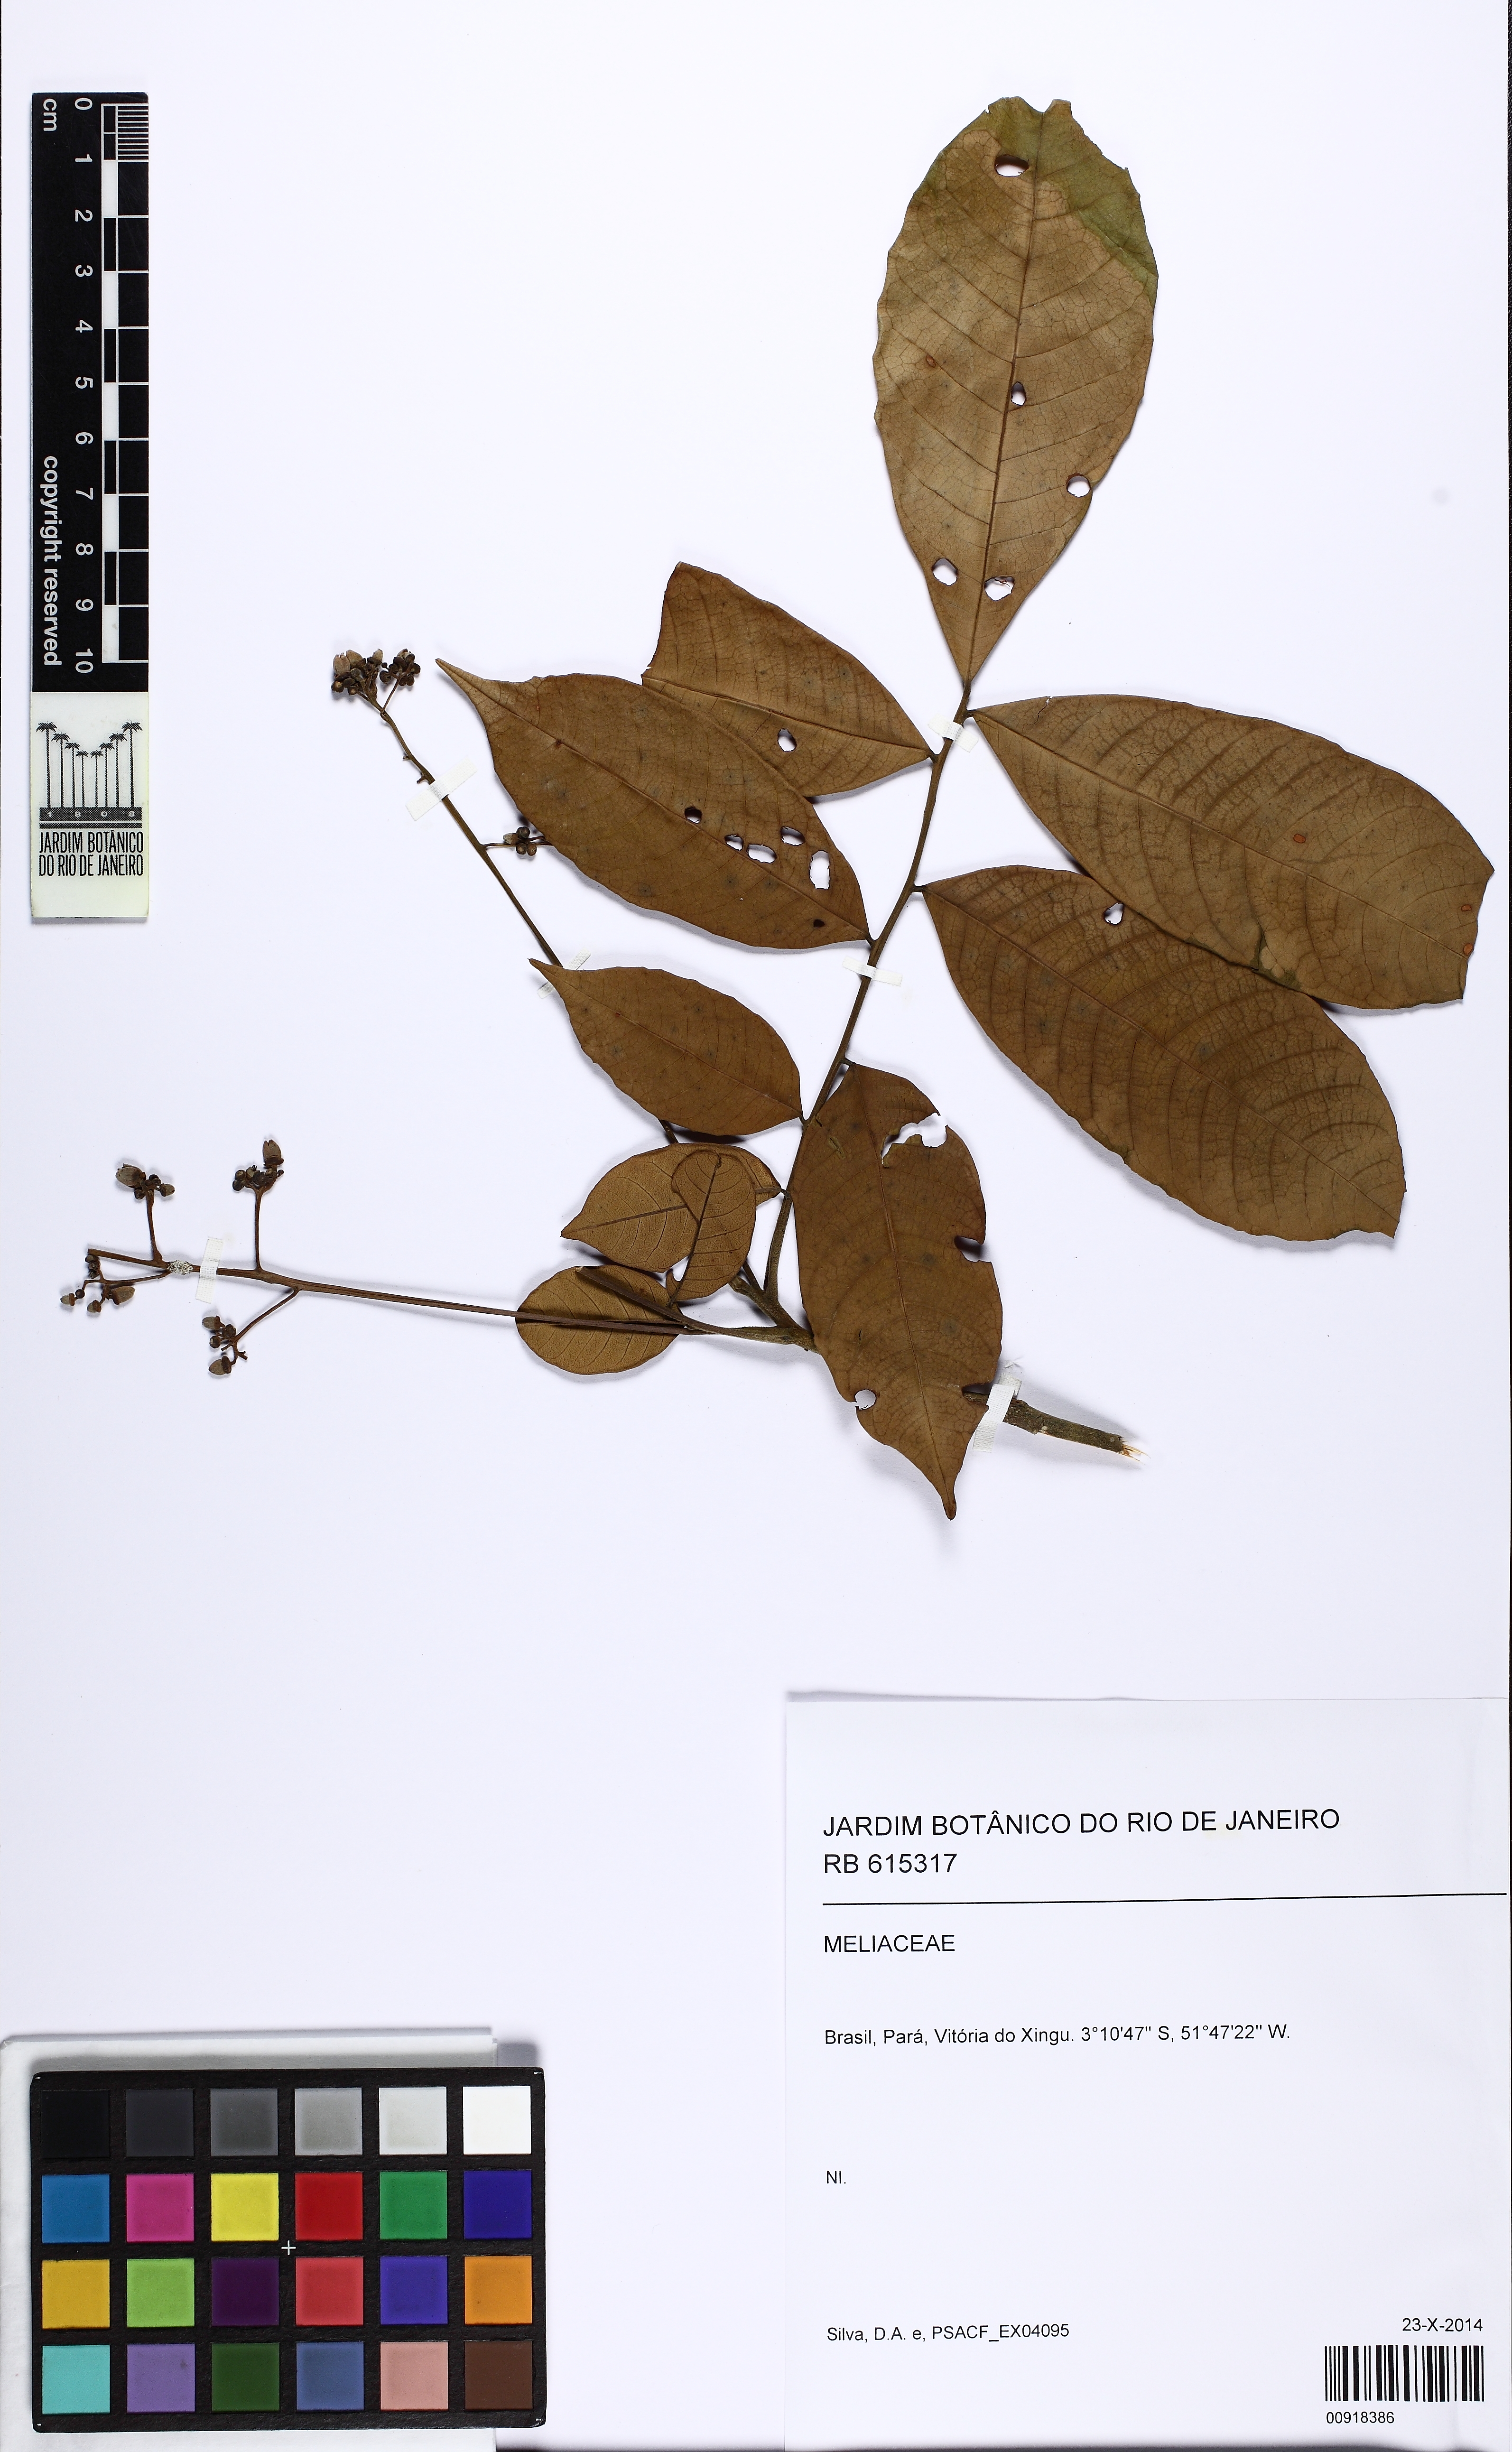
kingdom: Plantae
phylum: Tracheophyta
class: Magnoliopsida
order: Sapindales
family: Meliaceae
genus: Guarea
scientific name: Guarea
